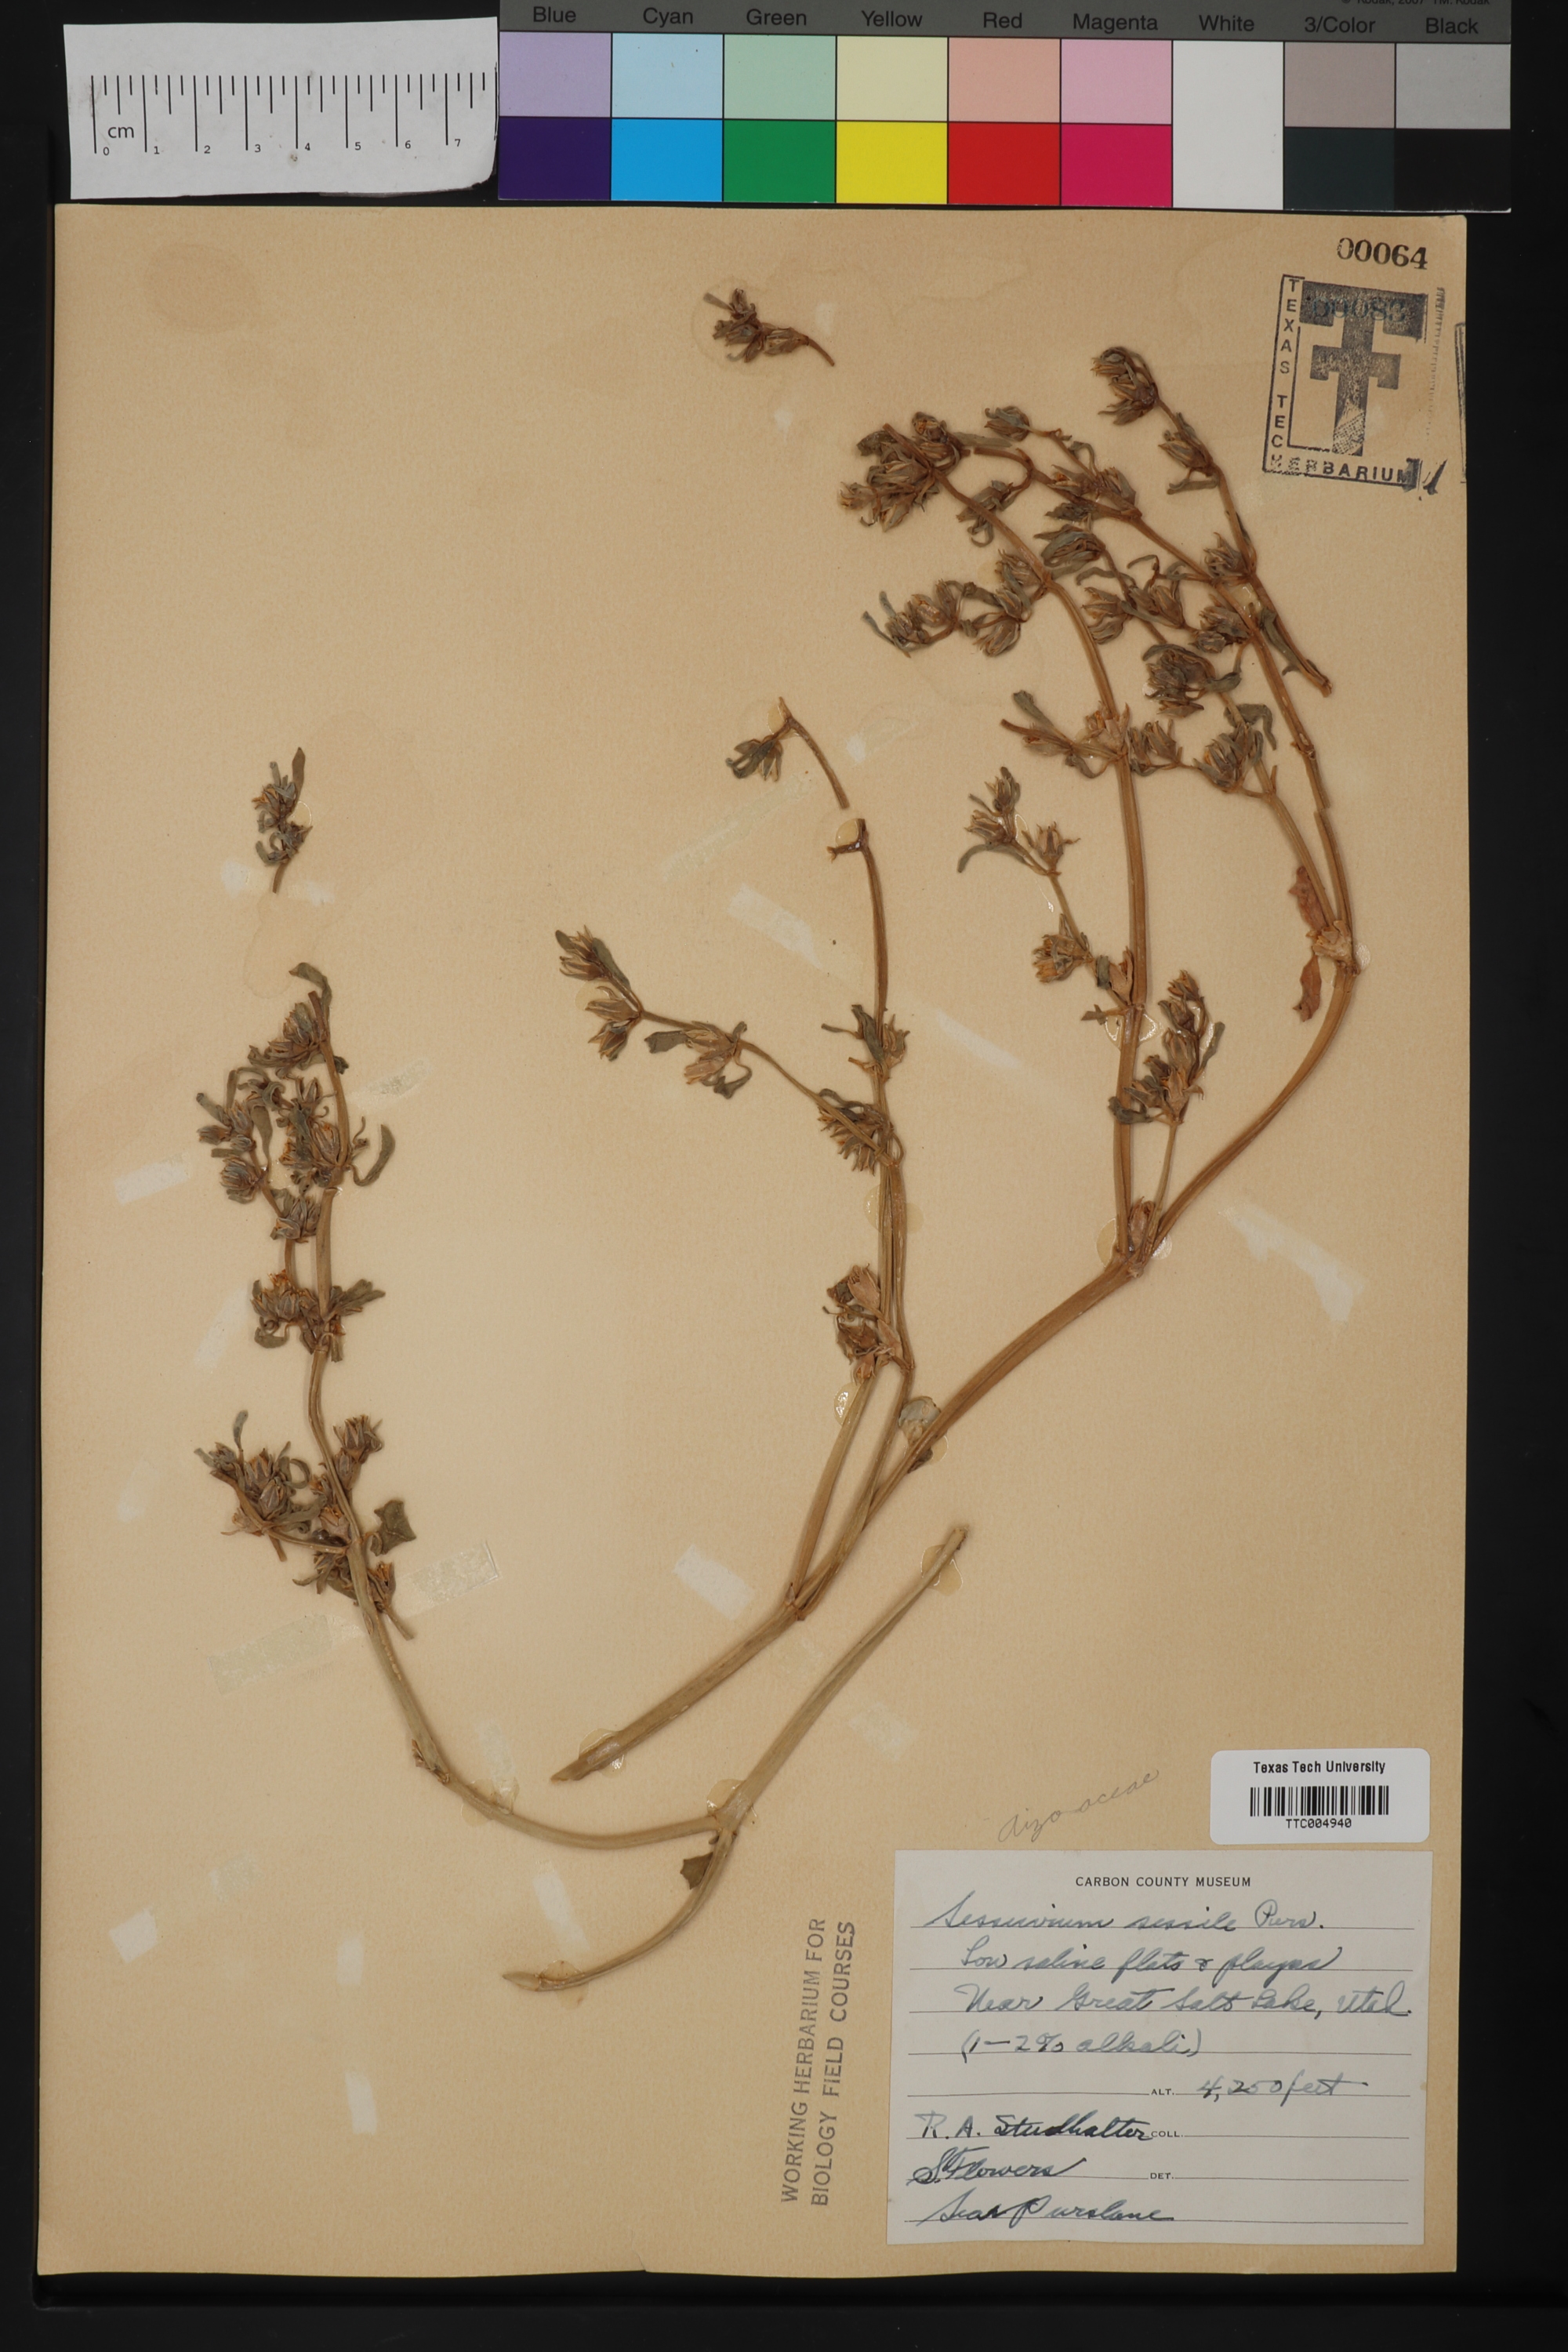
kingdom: Plantae
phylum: Tracheophyta
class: Magnoliopsida
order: Caryophyllales
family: Aizoaceae
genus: Sesuvium
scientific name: Sesuvium portulacastrum
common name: Sea-purslane
